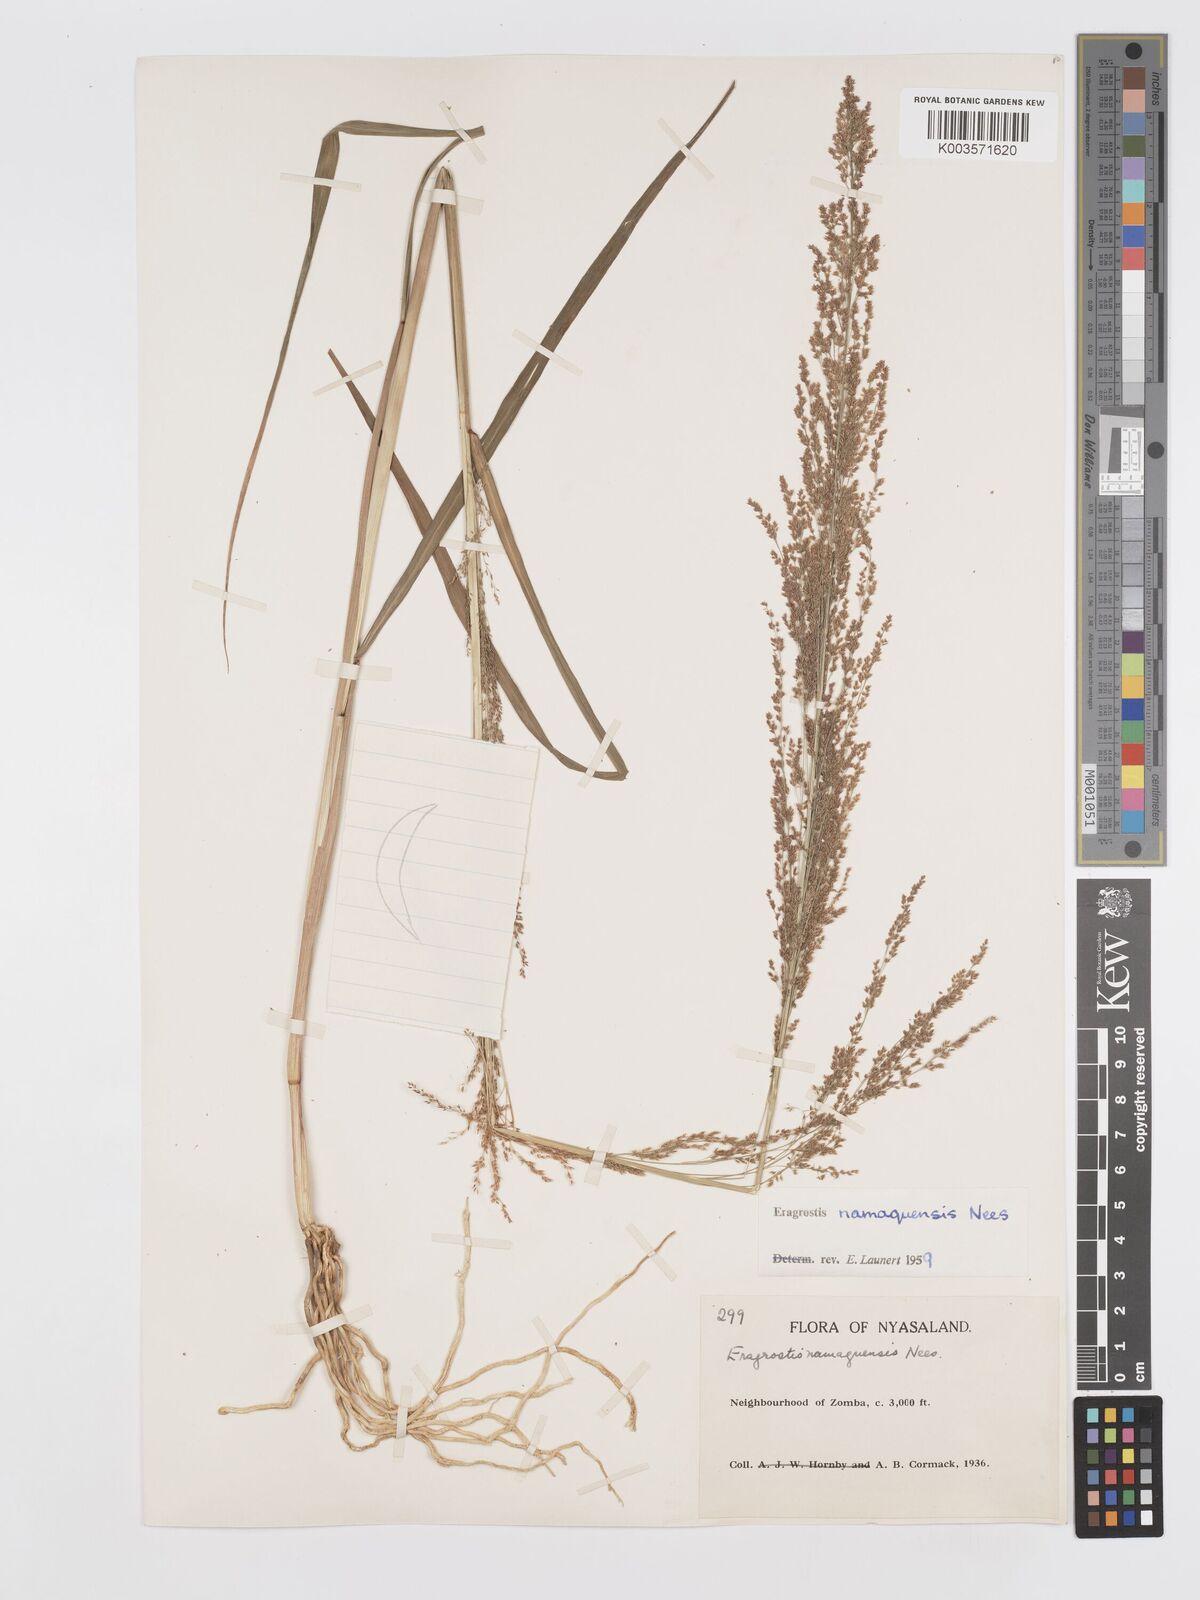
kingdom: Plantae
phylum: Tracheophyta
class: Liliopsida
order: Poales
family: Poaceae
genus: Eragrostis
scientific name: Eragrostis japonica
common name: Pond lovegrass
